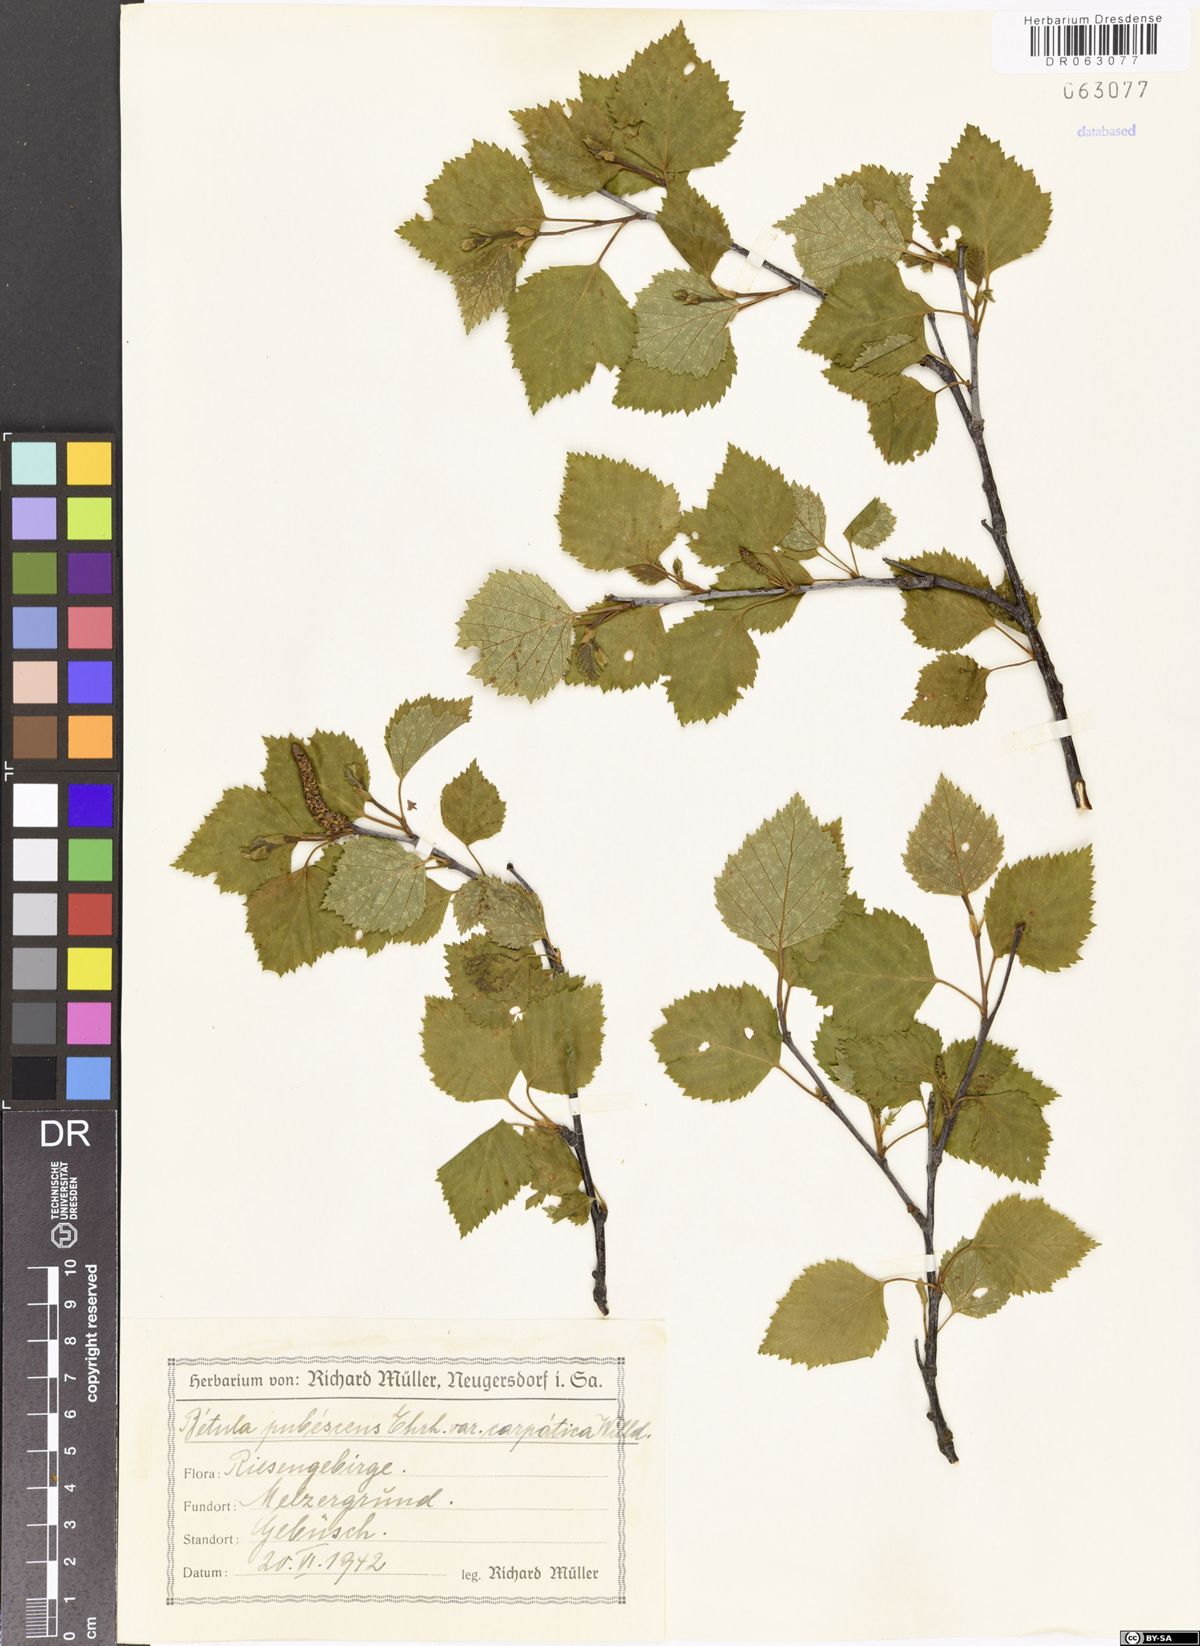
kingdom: Plantae
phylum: Tracheophyta
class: Magnoliopsida
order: Fagales
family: Betulaceae
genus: Betula
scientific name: Betula pubescens
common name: Downy birch
